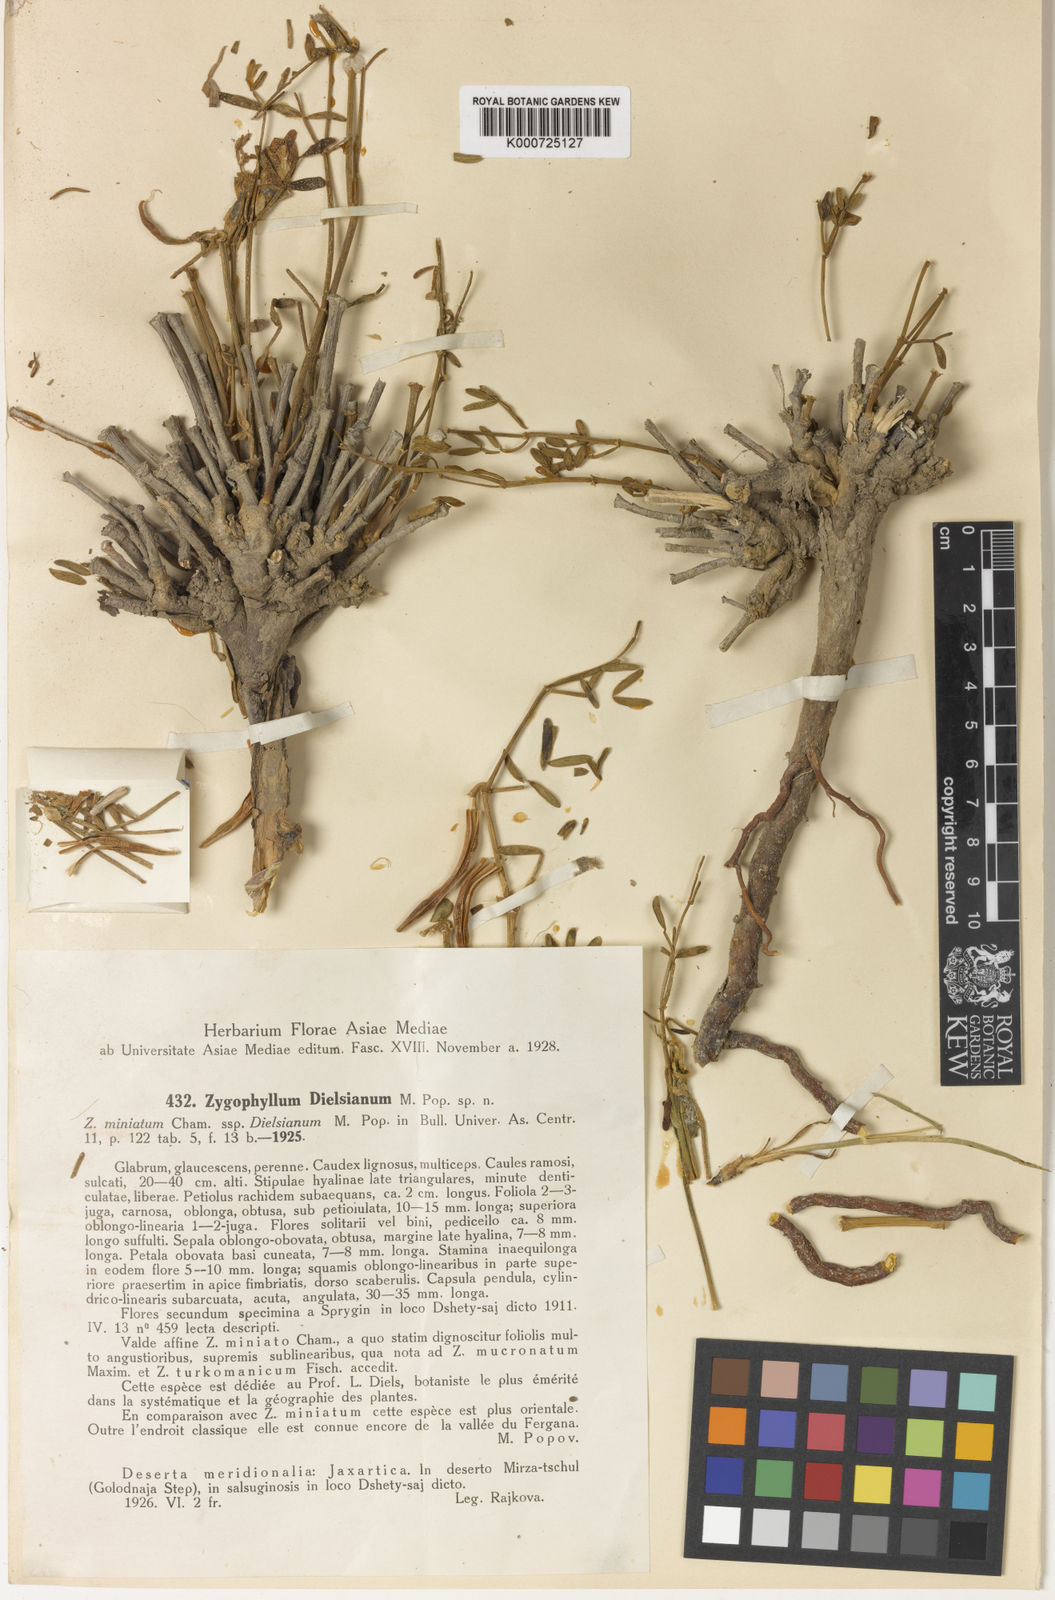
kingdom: Plantae
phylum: Tracheophyta
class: Magnoliopsida
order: Zygophyllales
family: Zygophyllaceae
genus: Zygophyllum
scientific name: Zygophyllum jaxarticum
